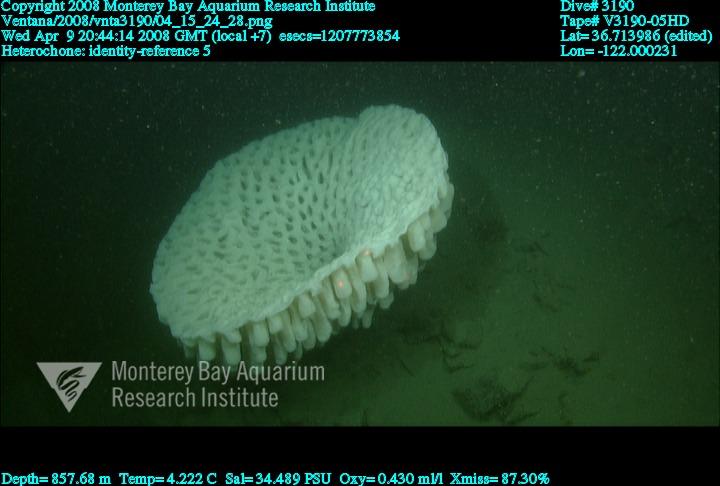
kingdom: Animalia
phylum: Porifera
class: Hexactinellida
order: Sceptrulophora
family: Aphrocallistidae
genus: Heterochone
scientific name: Heterochone
